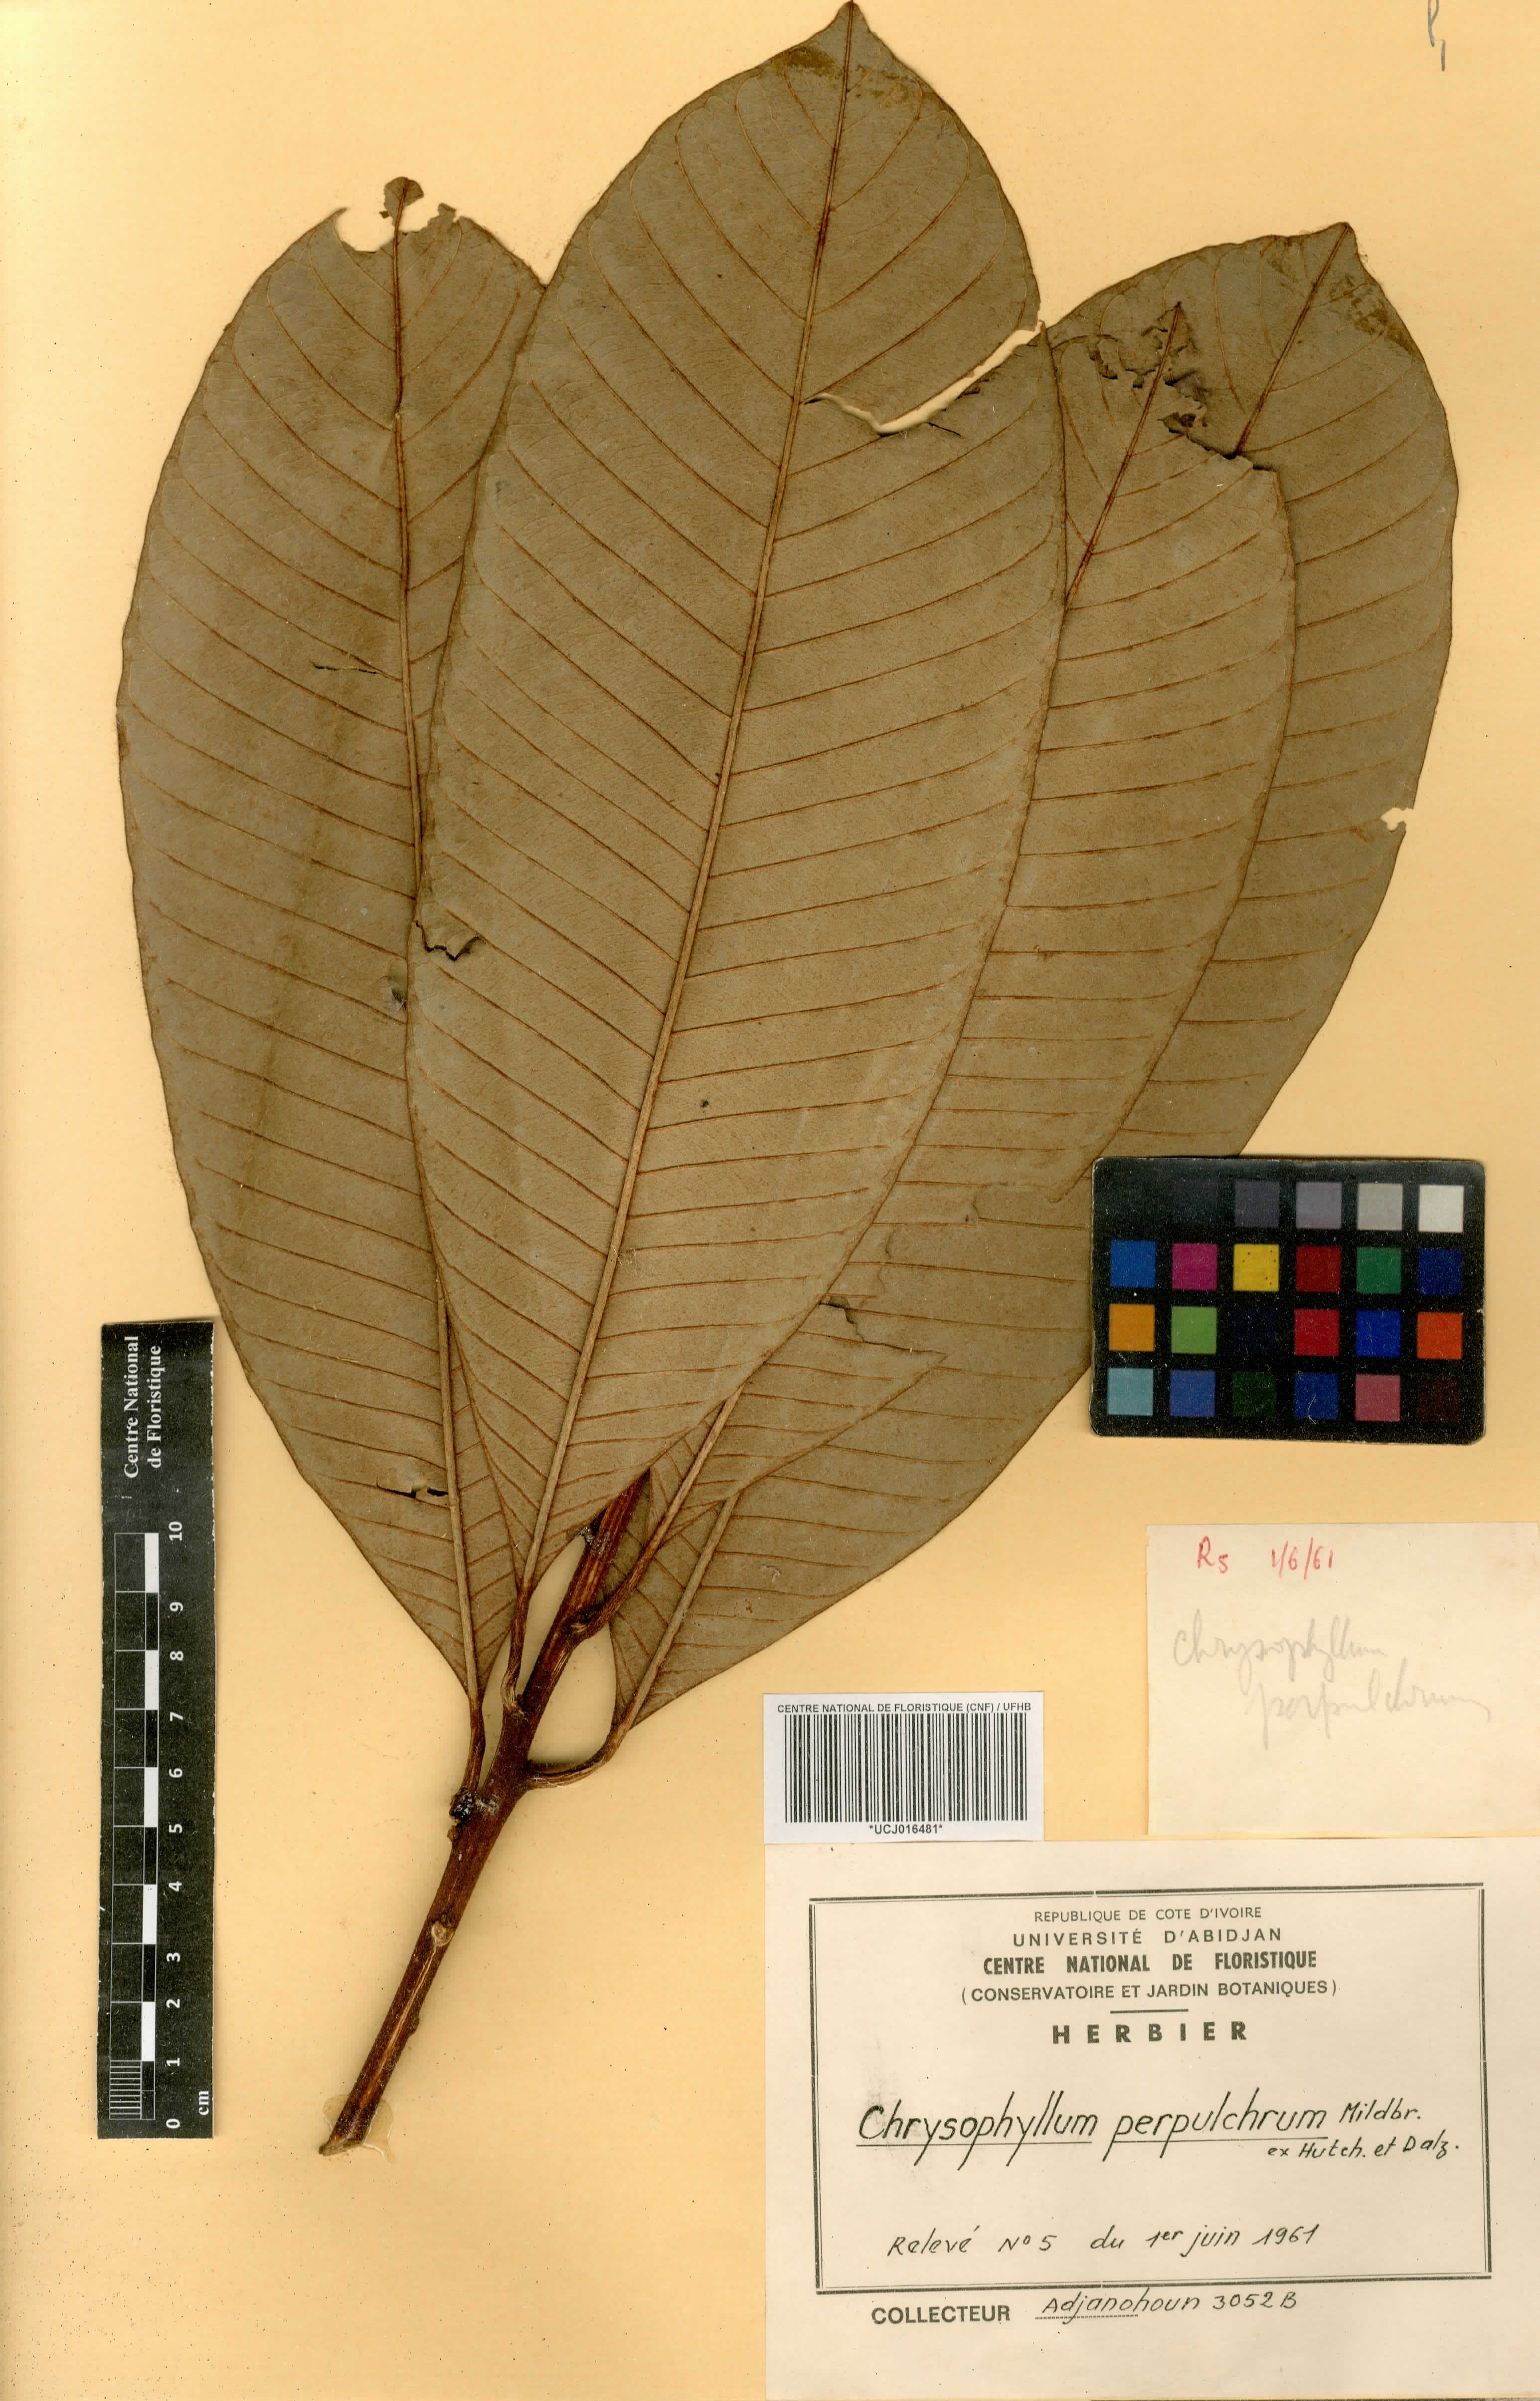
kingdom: Plantae
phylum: Tracheophyta
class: Magnoliopsida
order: Ericales
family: Sapotaceae
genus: Gambeya
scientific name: Gambeya perpulchra
